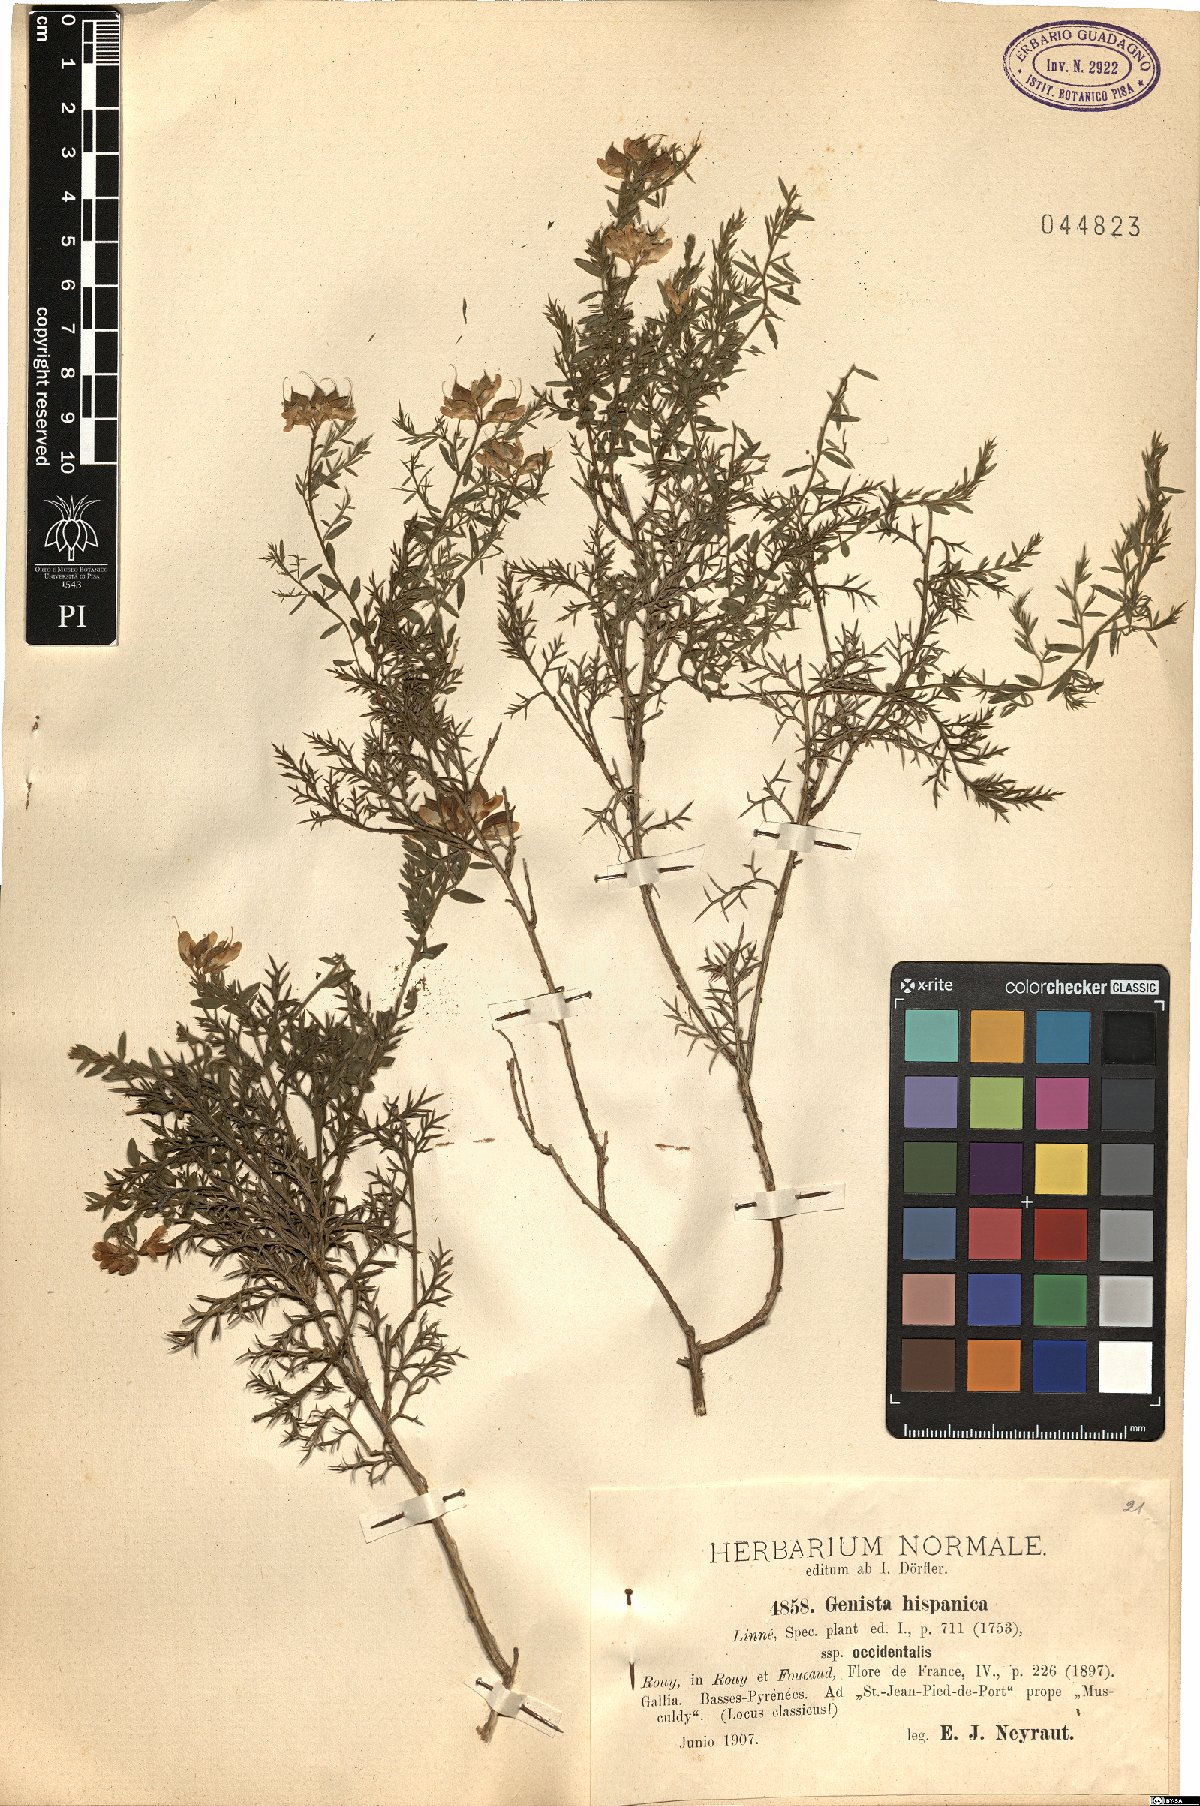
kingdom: Plantae
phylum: Tracheophyta
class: Magnoliopsida
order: Fabales
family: Fabaceae
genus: Genista
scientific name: Genista hispanica
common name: Spanish gorse
